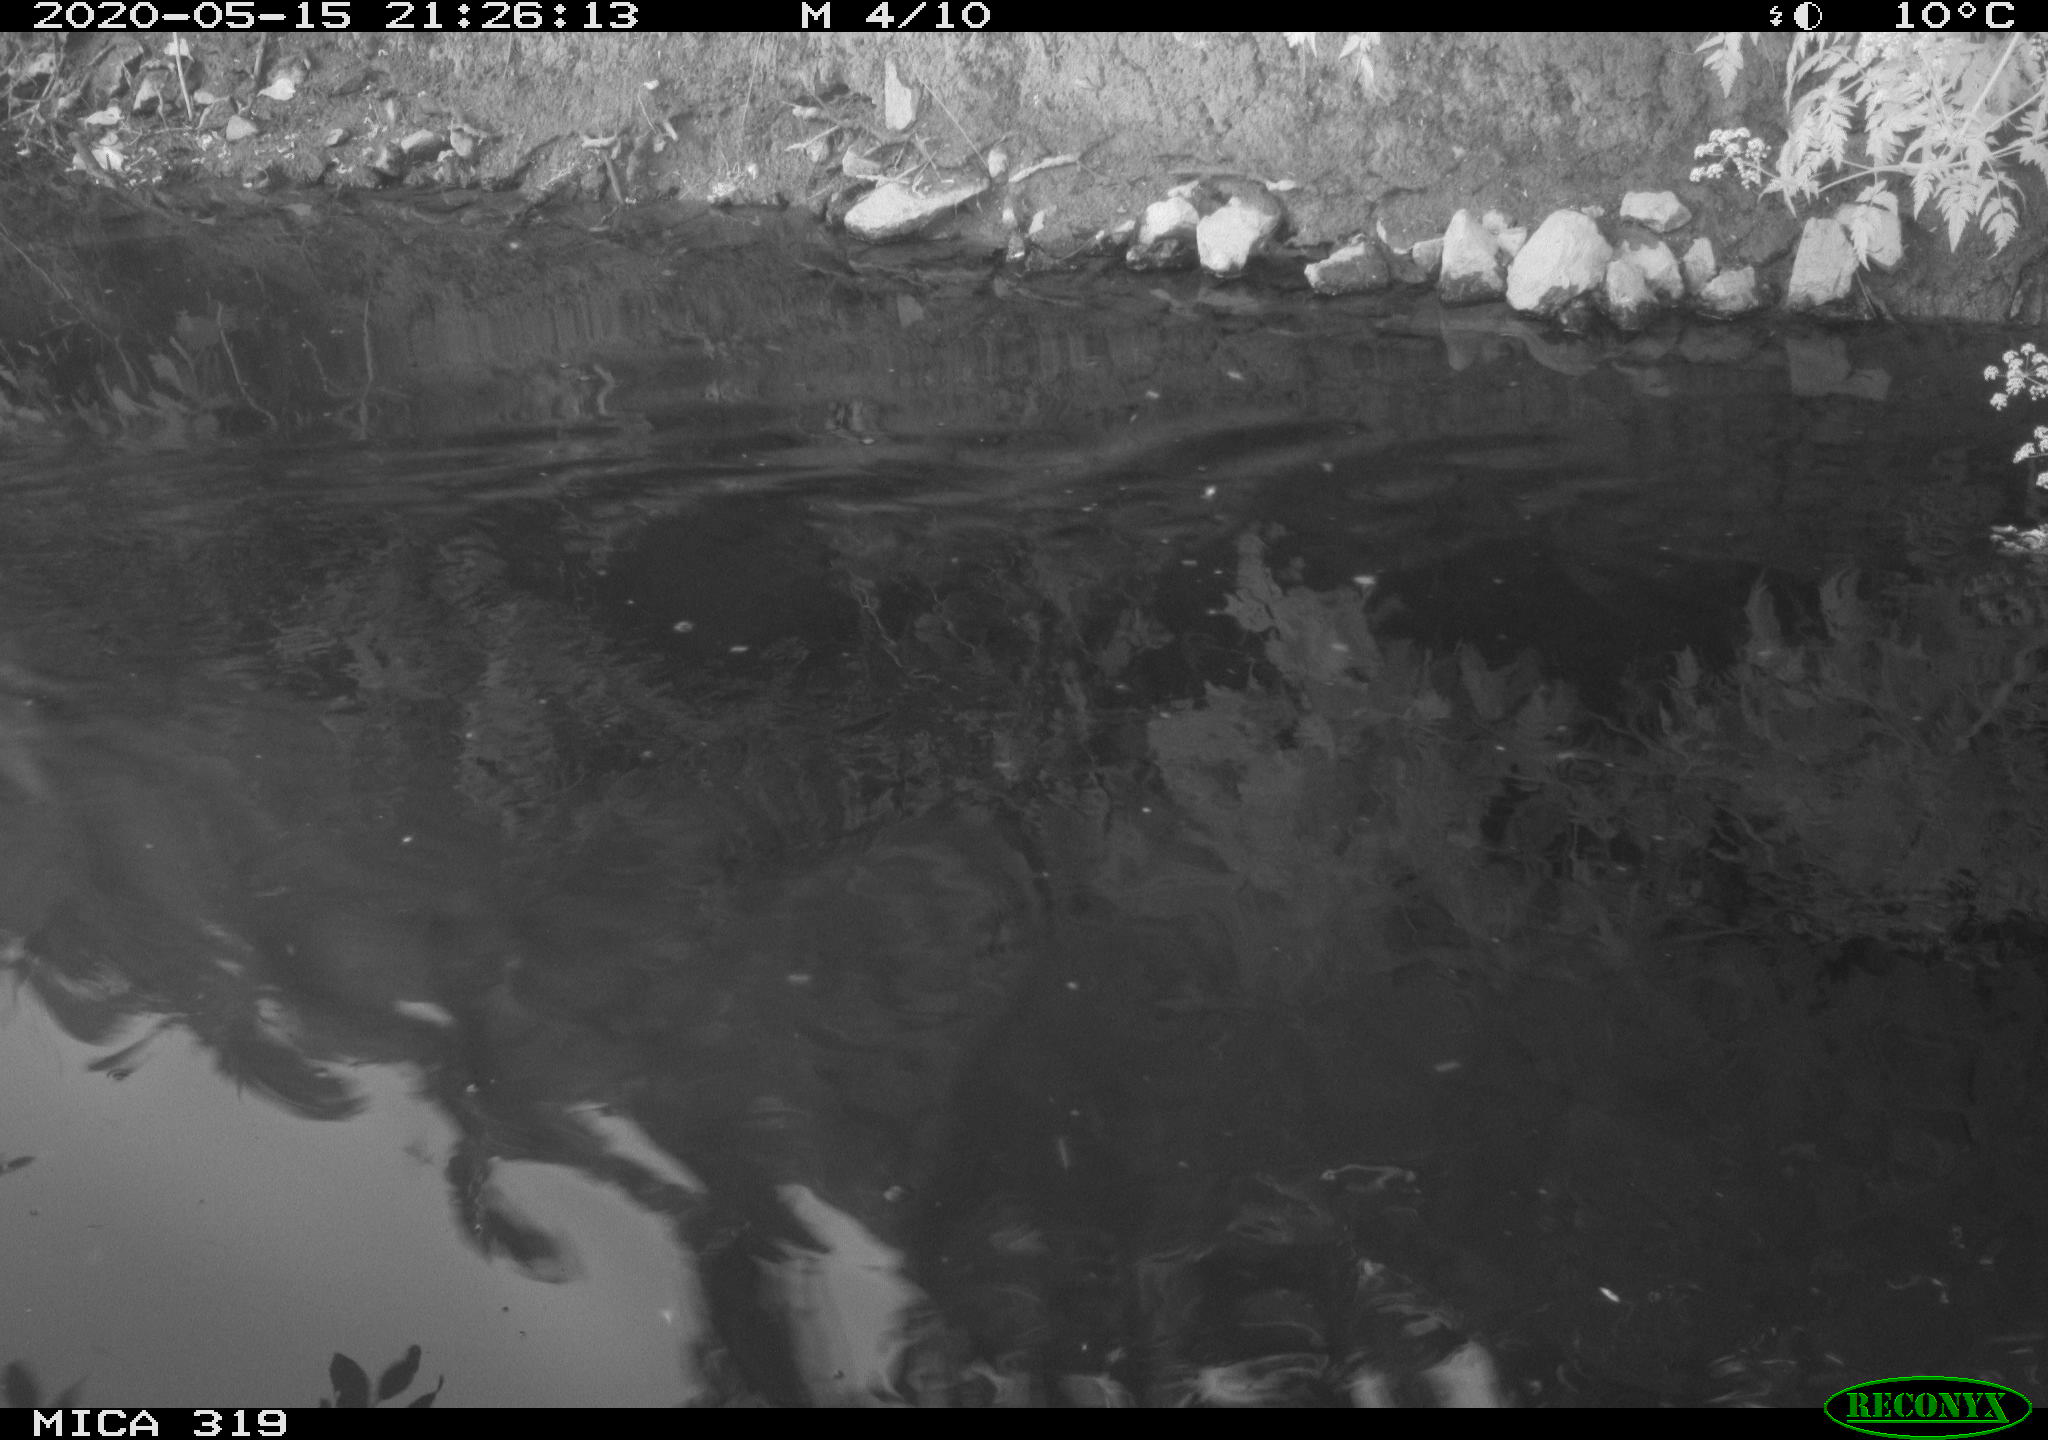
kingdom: Animalia
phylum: Chordata
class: Aves
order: Anseriformes
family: Anatidae
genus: Anas
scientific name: Anas platyrhynchos
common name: Mallard
